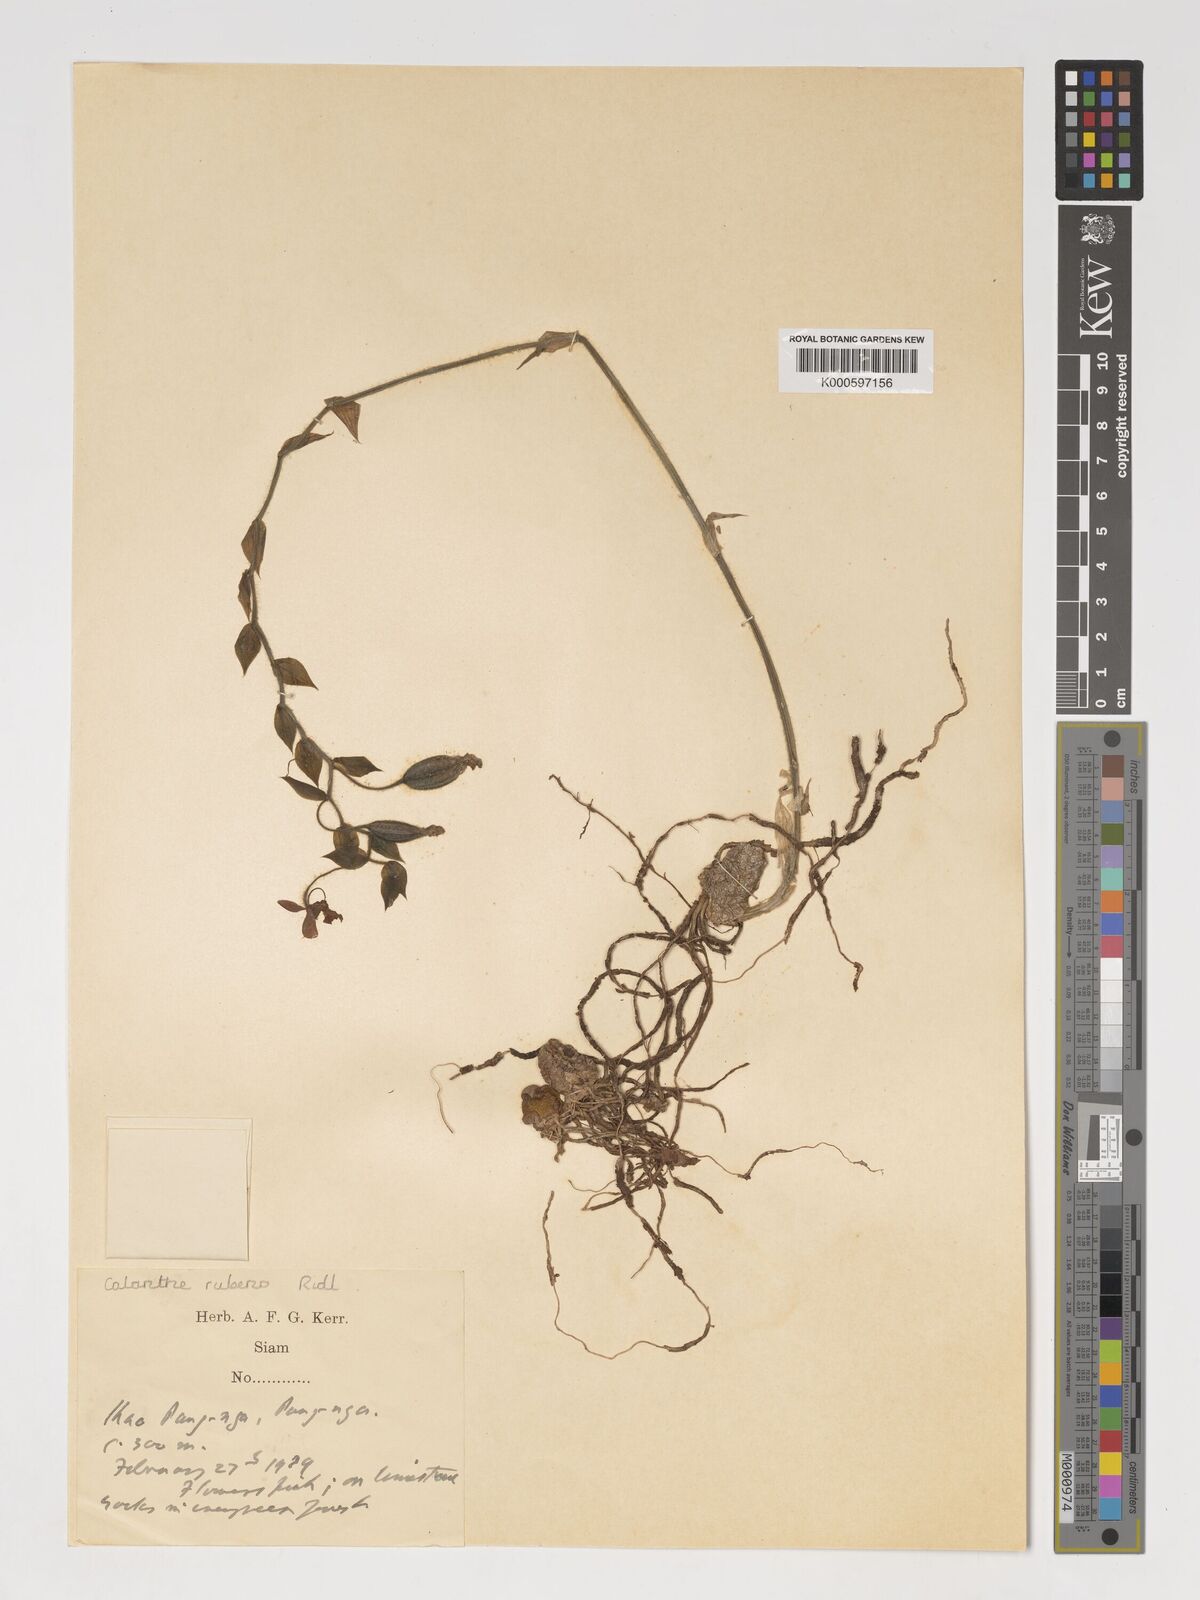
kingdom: Plantae
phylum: Tracheophyta
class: Liliopsida
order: Asparagales
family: Orchidaceae
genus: Calanthe
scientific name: Calanthe rubens
